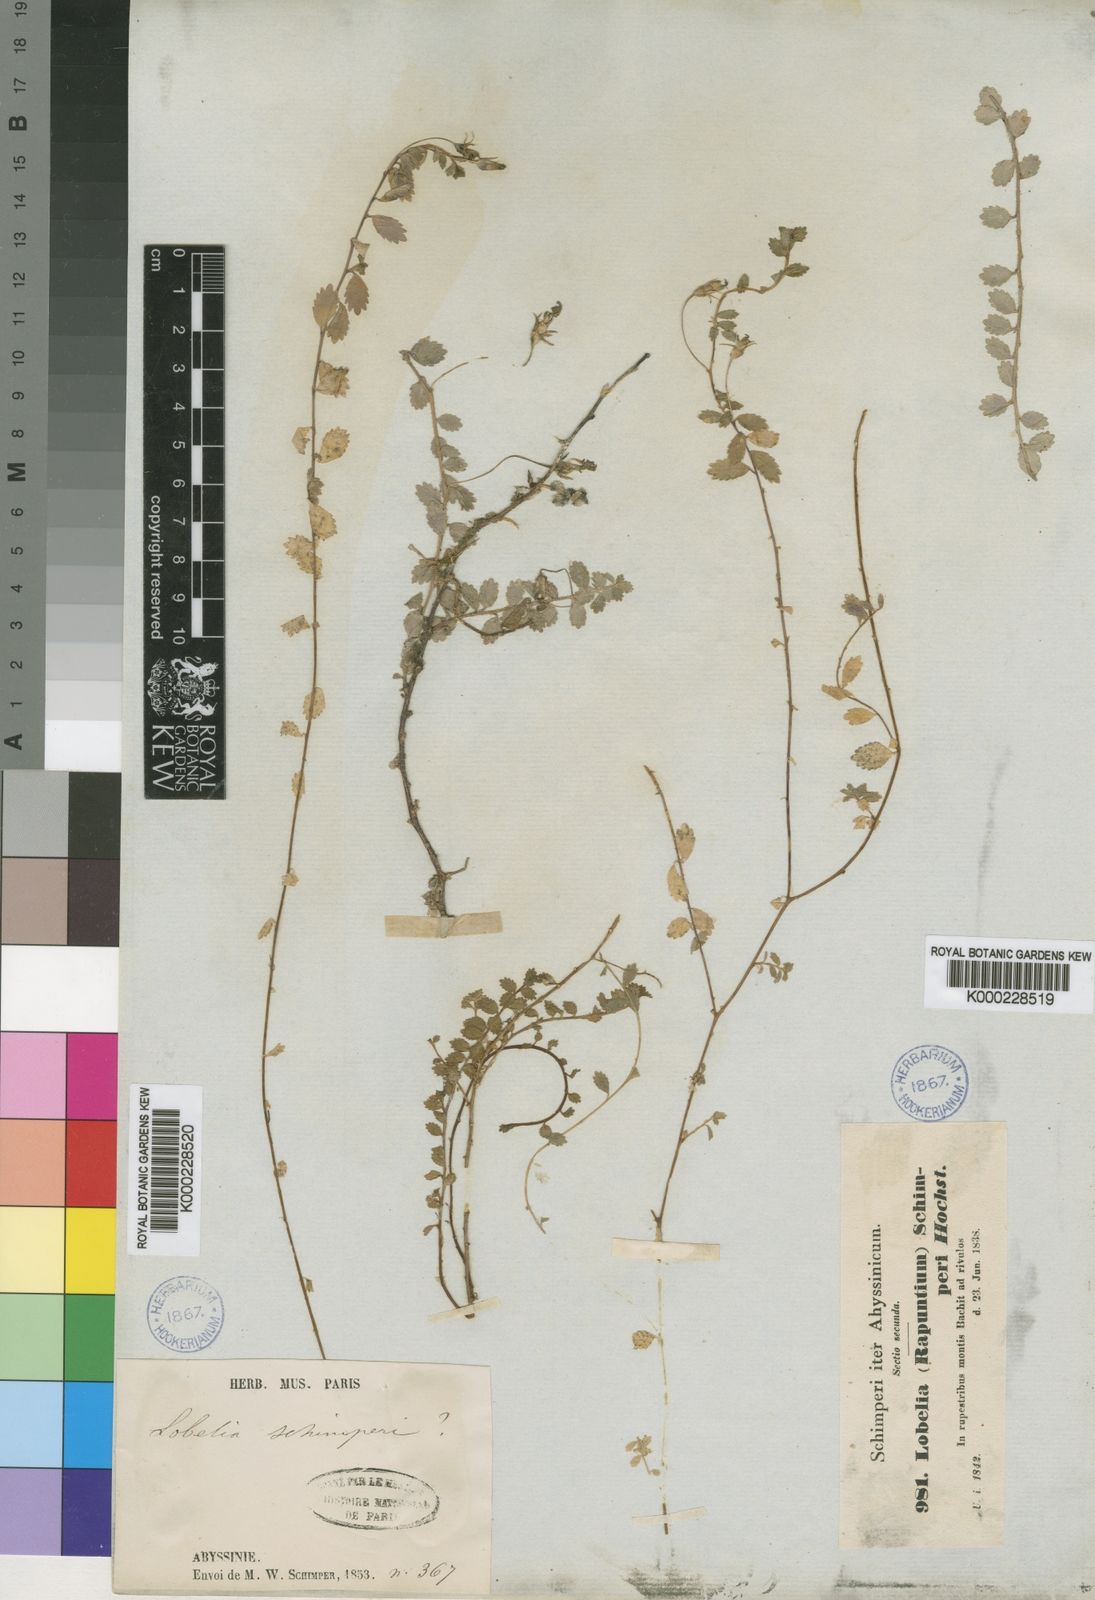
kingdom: Plantae
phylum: Tracheophyta
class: Magnoliopsida
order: Asterales
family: Campanulaceae
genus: Lobelia
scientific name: Lobelia
